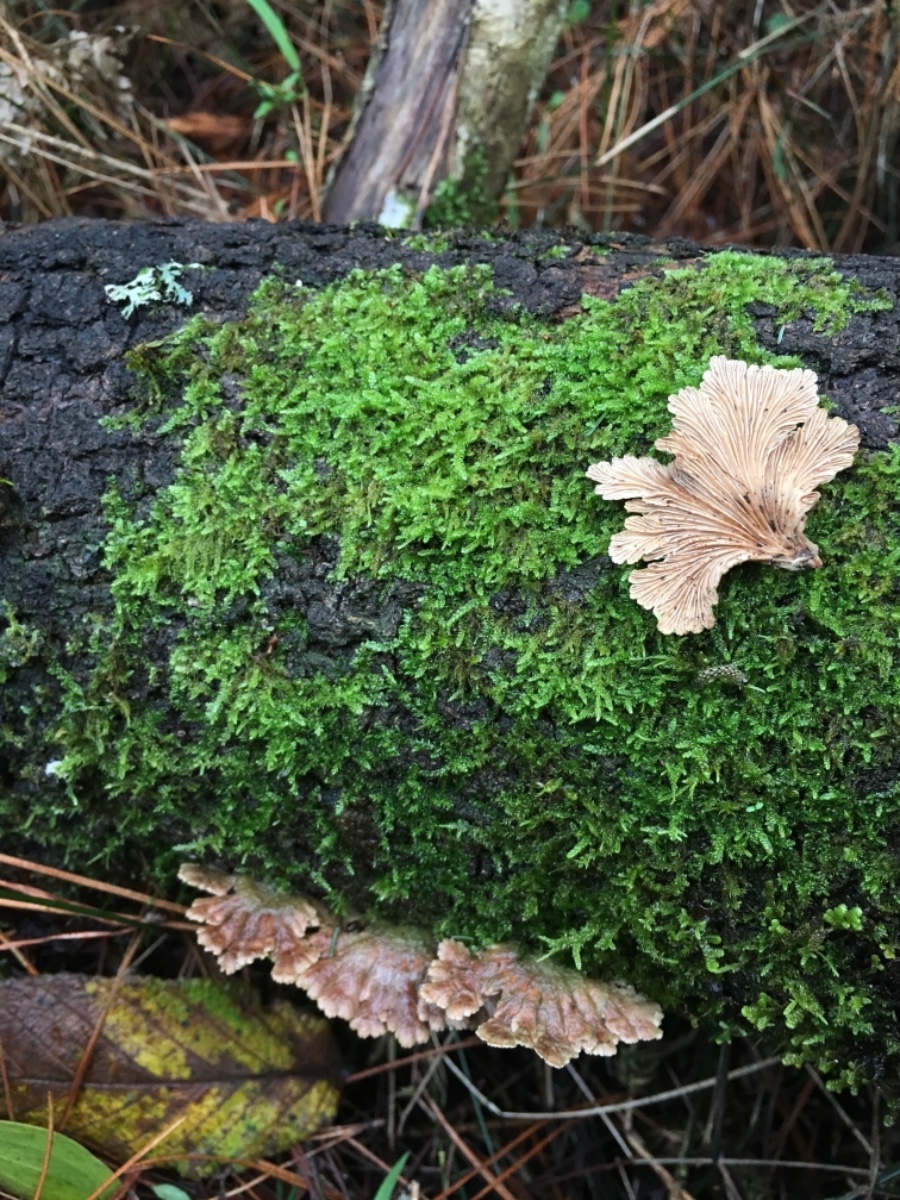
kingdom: Fungi
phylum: Basidiomycota
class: Agaricomycetes
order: Agaricales
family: Schizophyllaceae
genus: Schizophyllum
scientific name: Schizophyllum commune
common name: kløvblad
